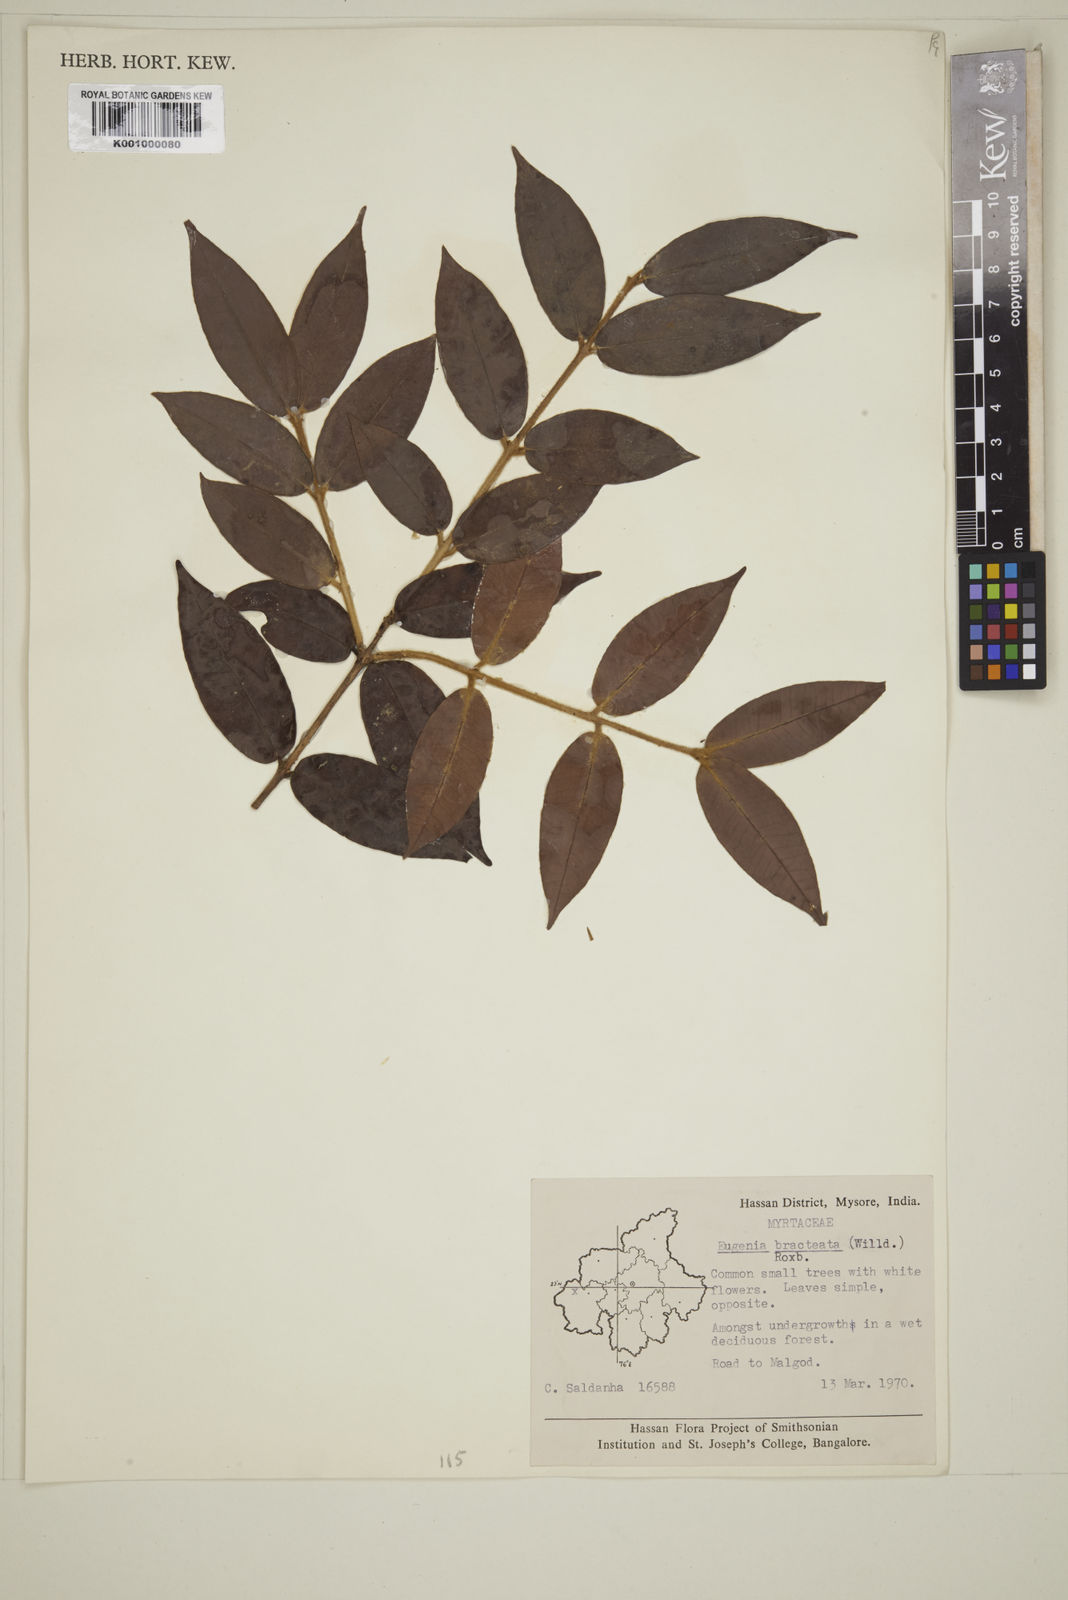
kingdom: Plantae
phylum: Tracheophyta
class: Magnoliopsida
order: Myrtales
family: Myrtaceae
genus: Myrcia
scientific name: Myrcia bracteata
